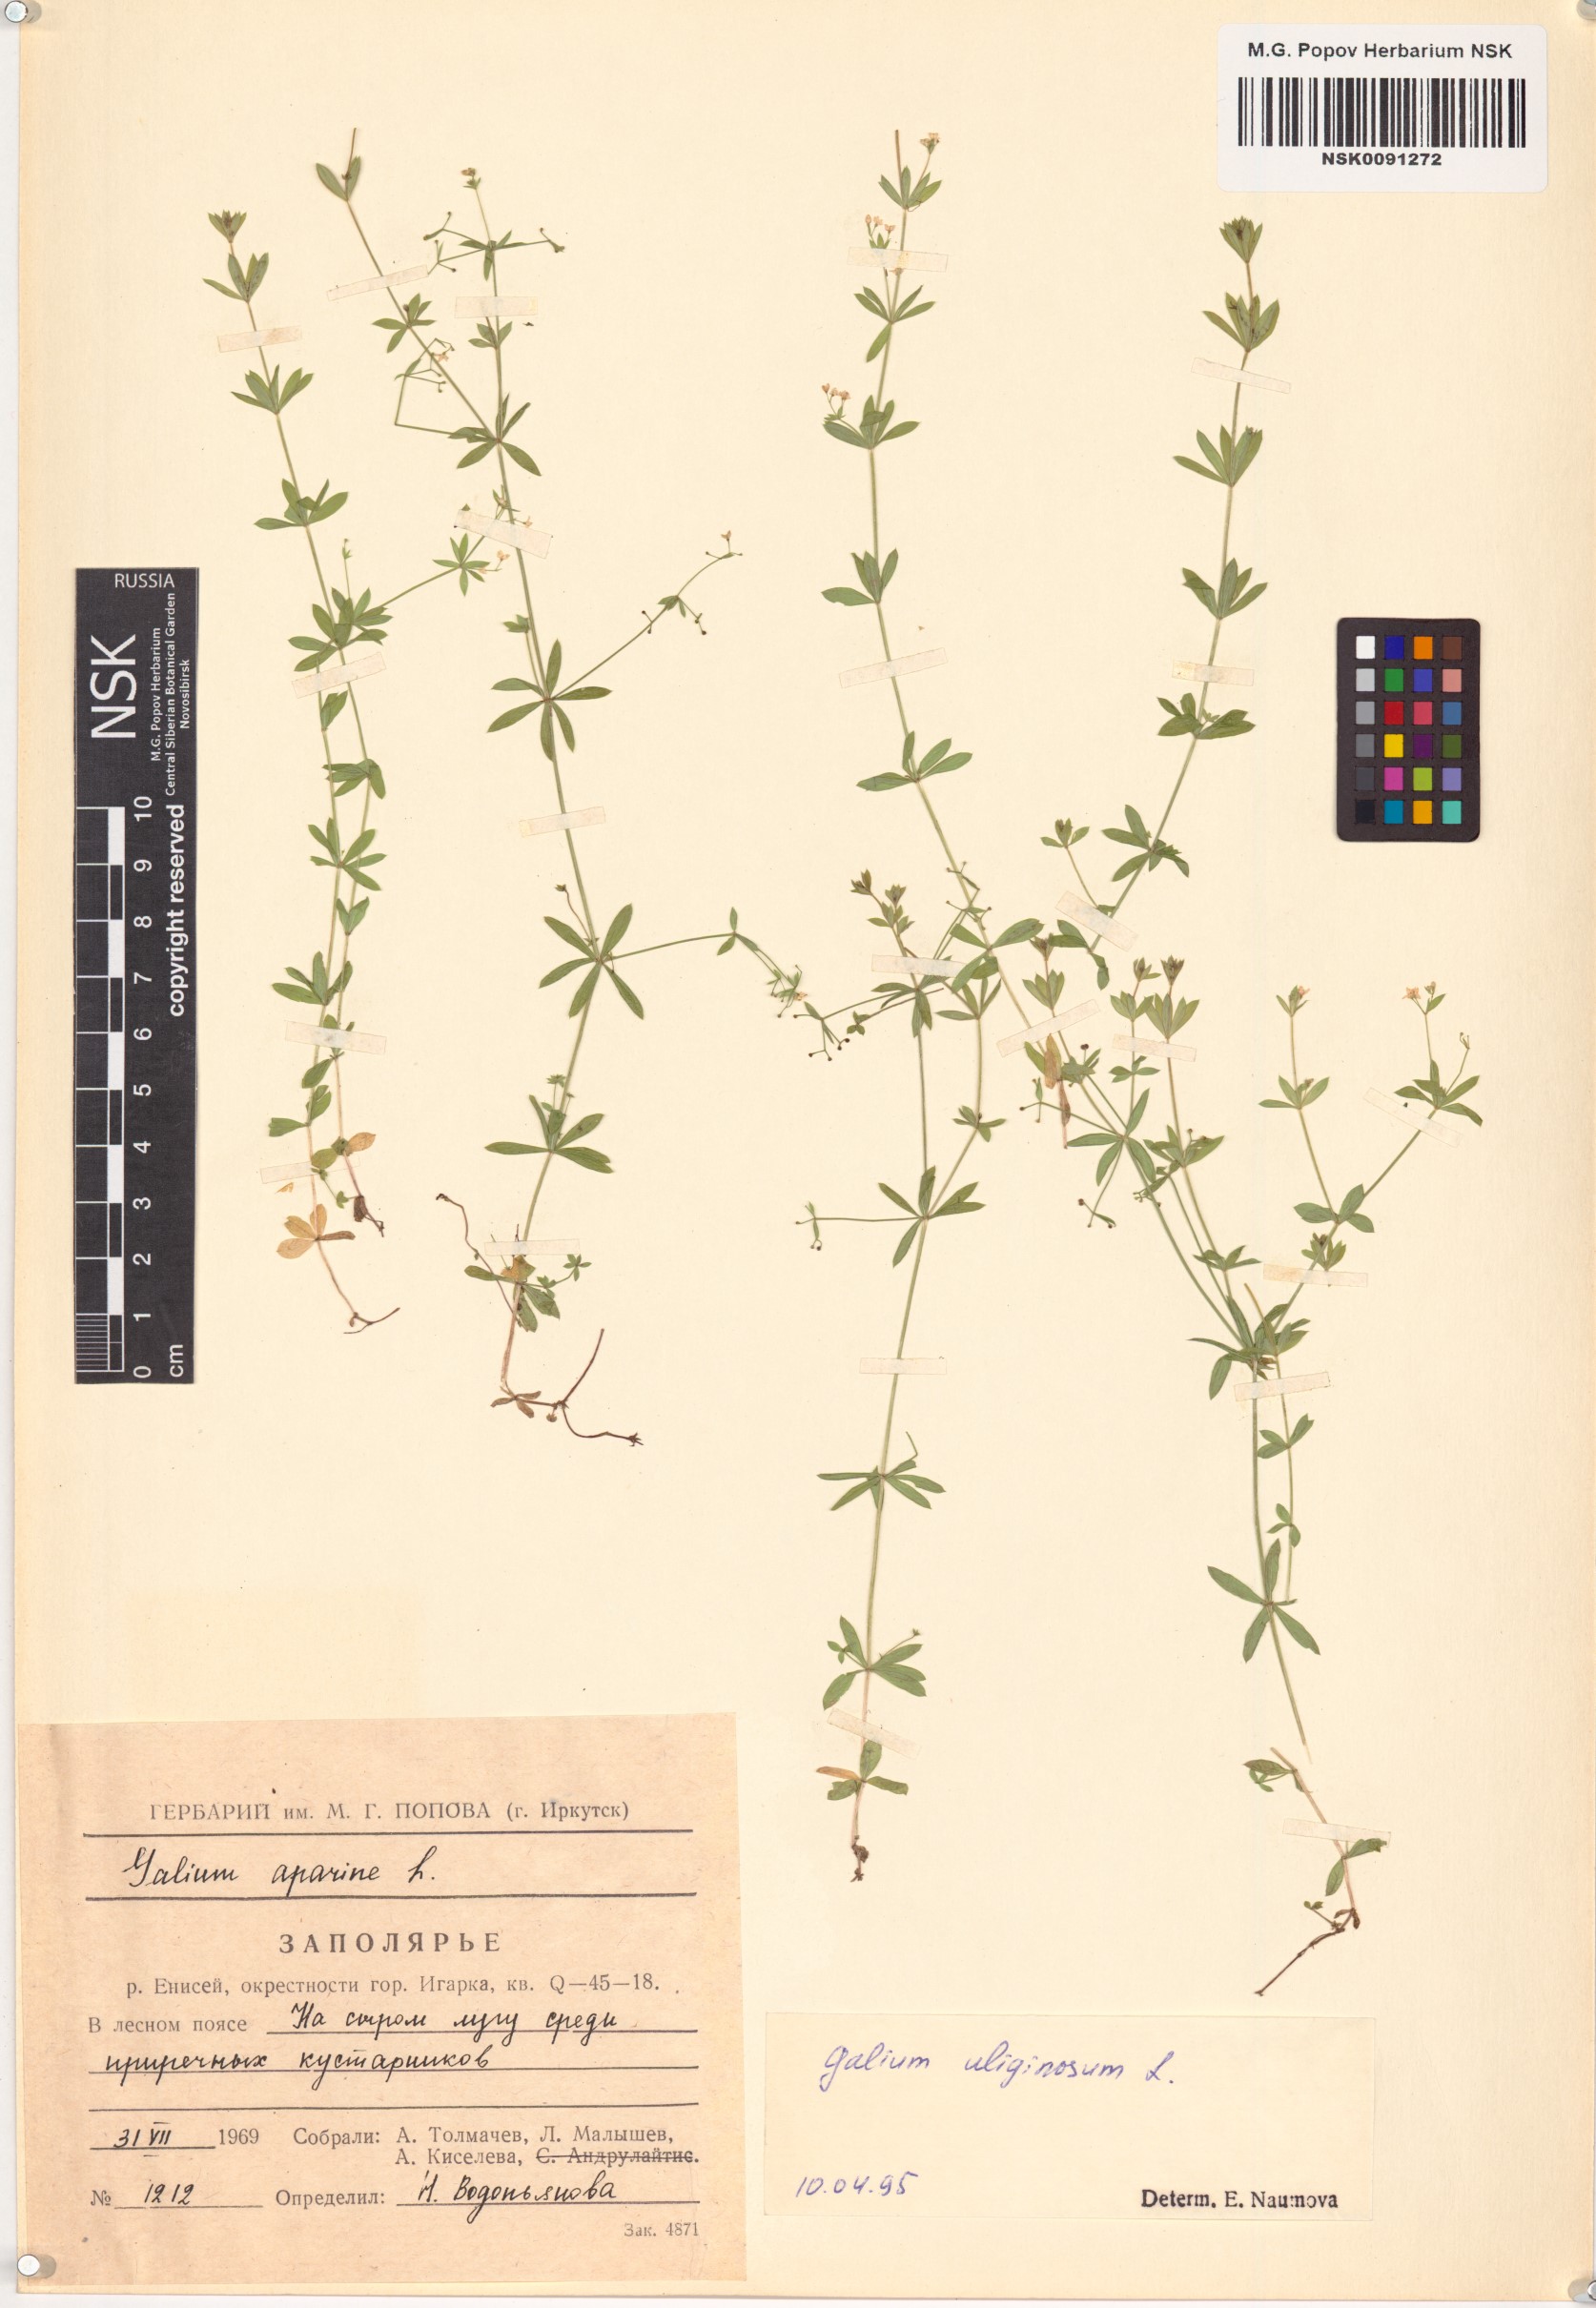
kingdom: Plantae
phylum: Tracheophyta
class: Magnoliopsida
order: Gentianales
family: Rubiaceae
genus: Galium
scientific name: Galium uliginosum
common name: Fen bedstraw
